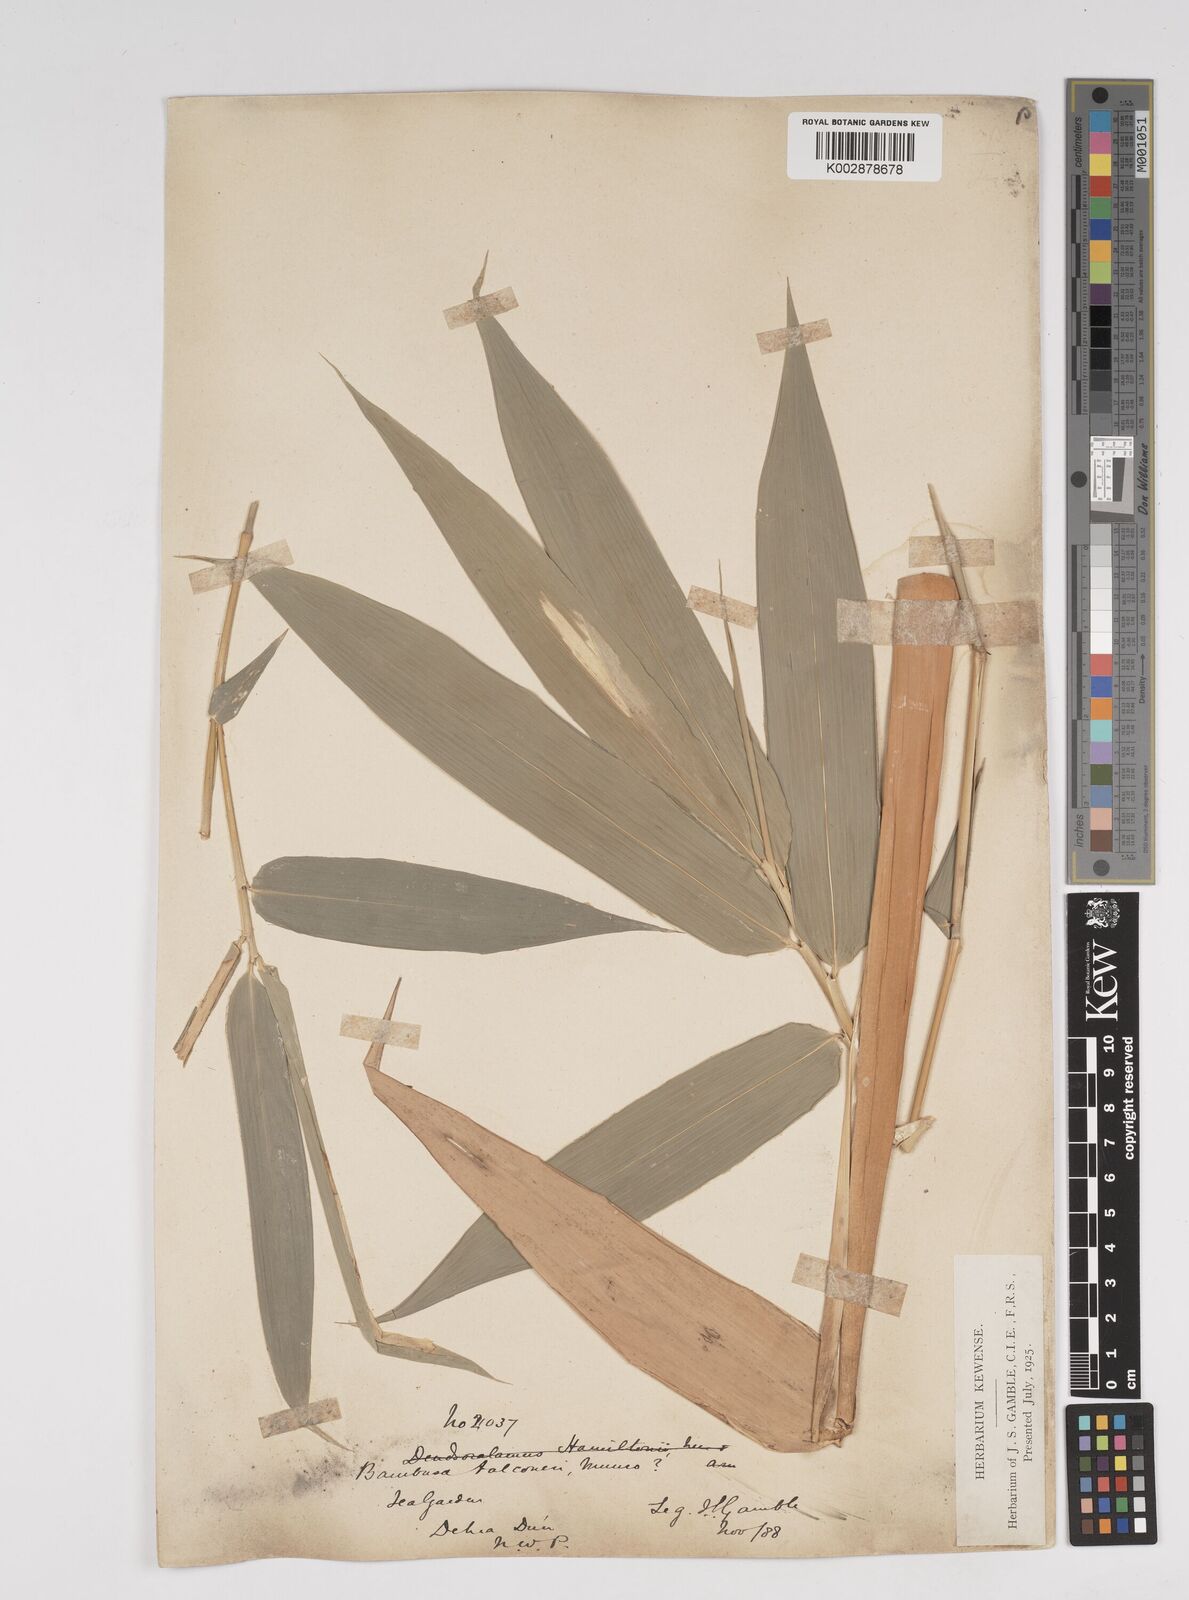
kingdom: Plantae
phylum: Tracheophyta
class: Liliopsida
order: Poales
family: Poaceae
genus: Dendrocalamus
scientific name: Dendrocalamus hamiltonii
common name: Tama bamboo
